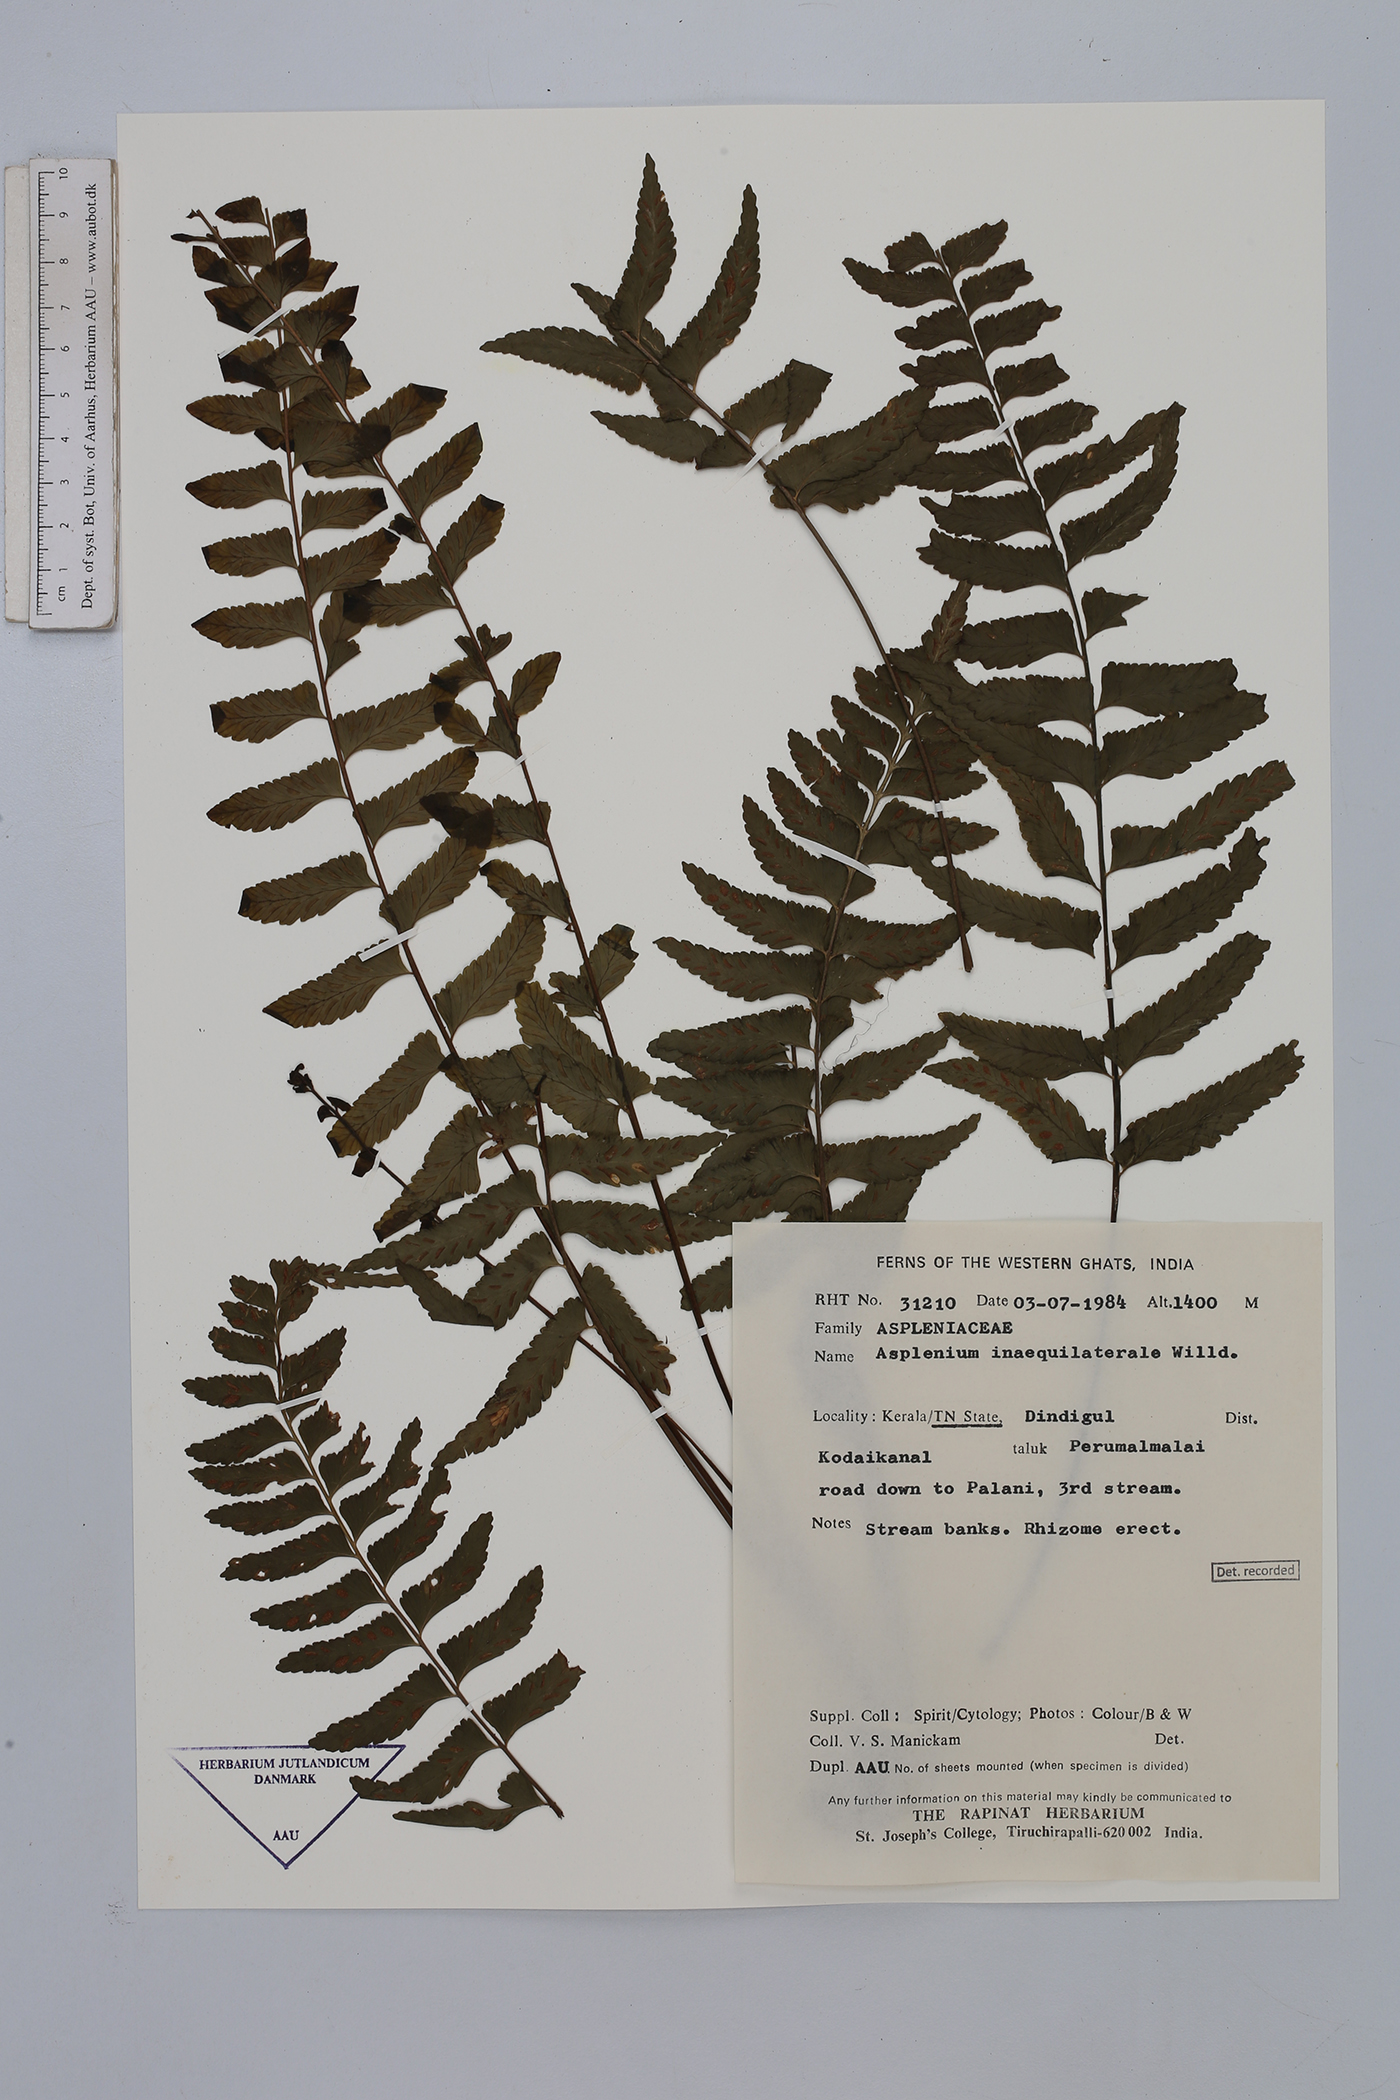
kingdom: Plantae
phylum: Tracheophyta
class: Polypodiopsida
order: Polypodiales
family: Aspleniaceae
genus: Asplenium
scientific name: Asplenium inaequilaterale
